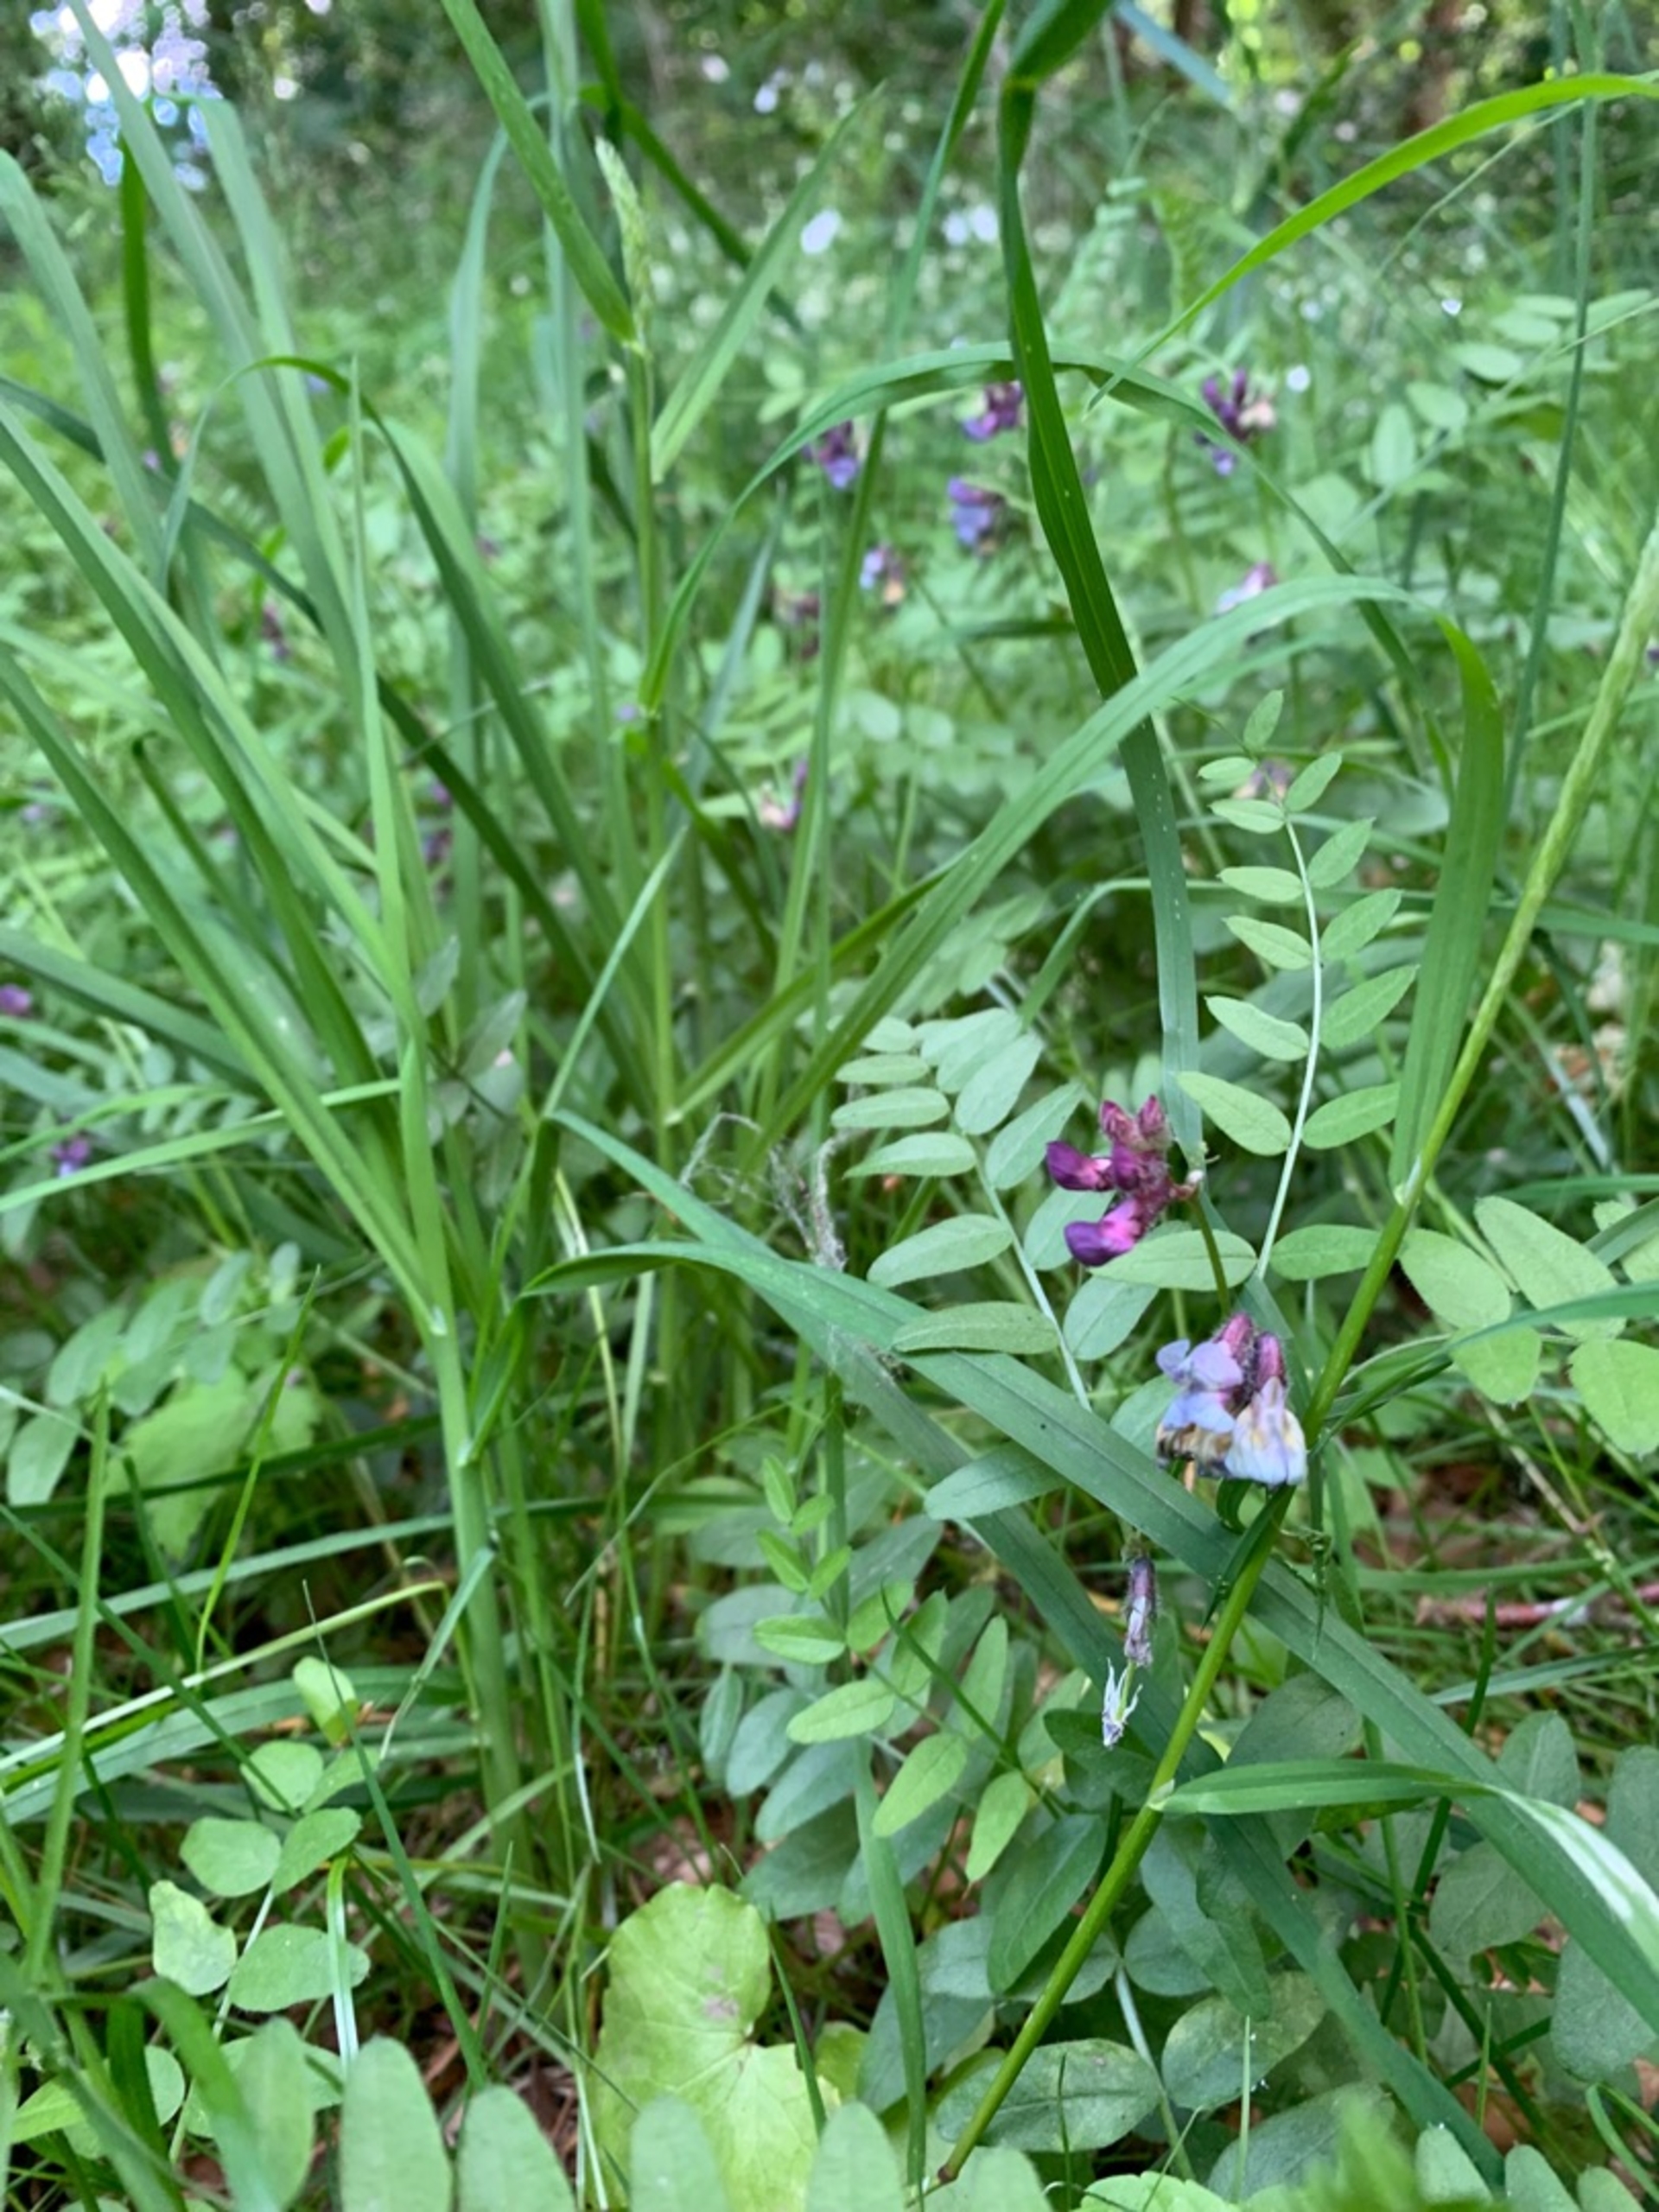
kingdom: Plantae
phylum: Tracheophyta
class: Magnoliopsida
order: Fabales
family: Fabaceae
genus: Vicia
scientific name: Vicia sepium
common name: Gærde-vikke
